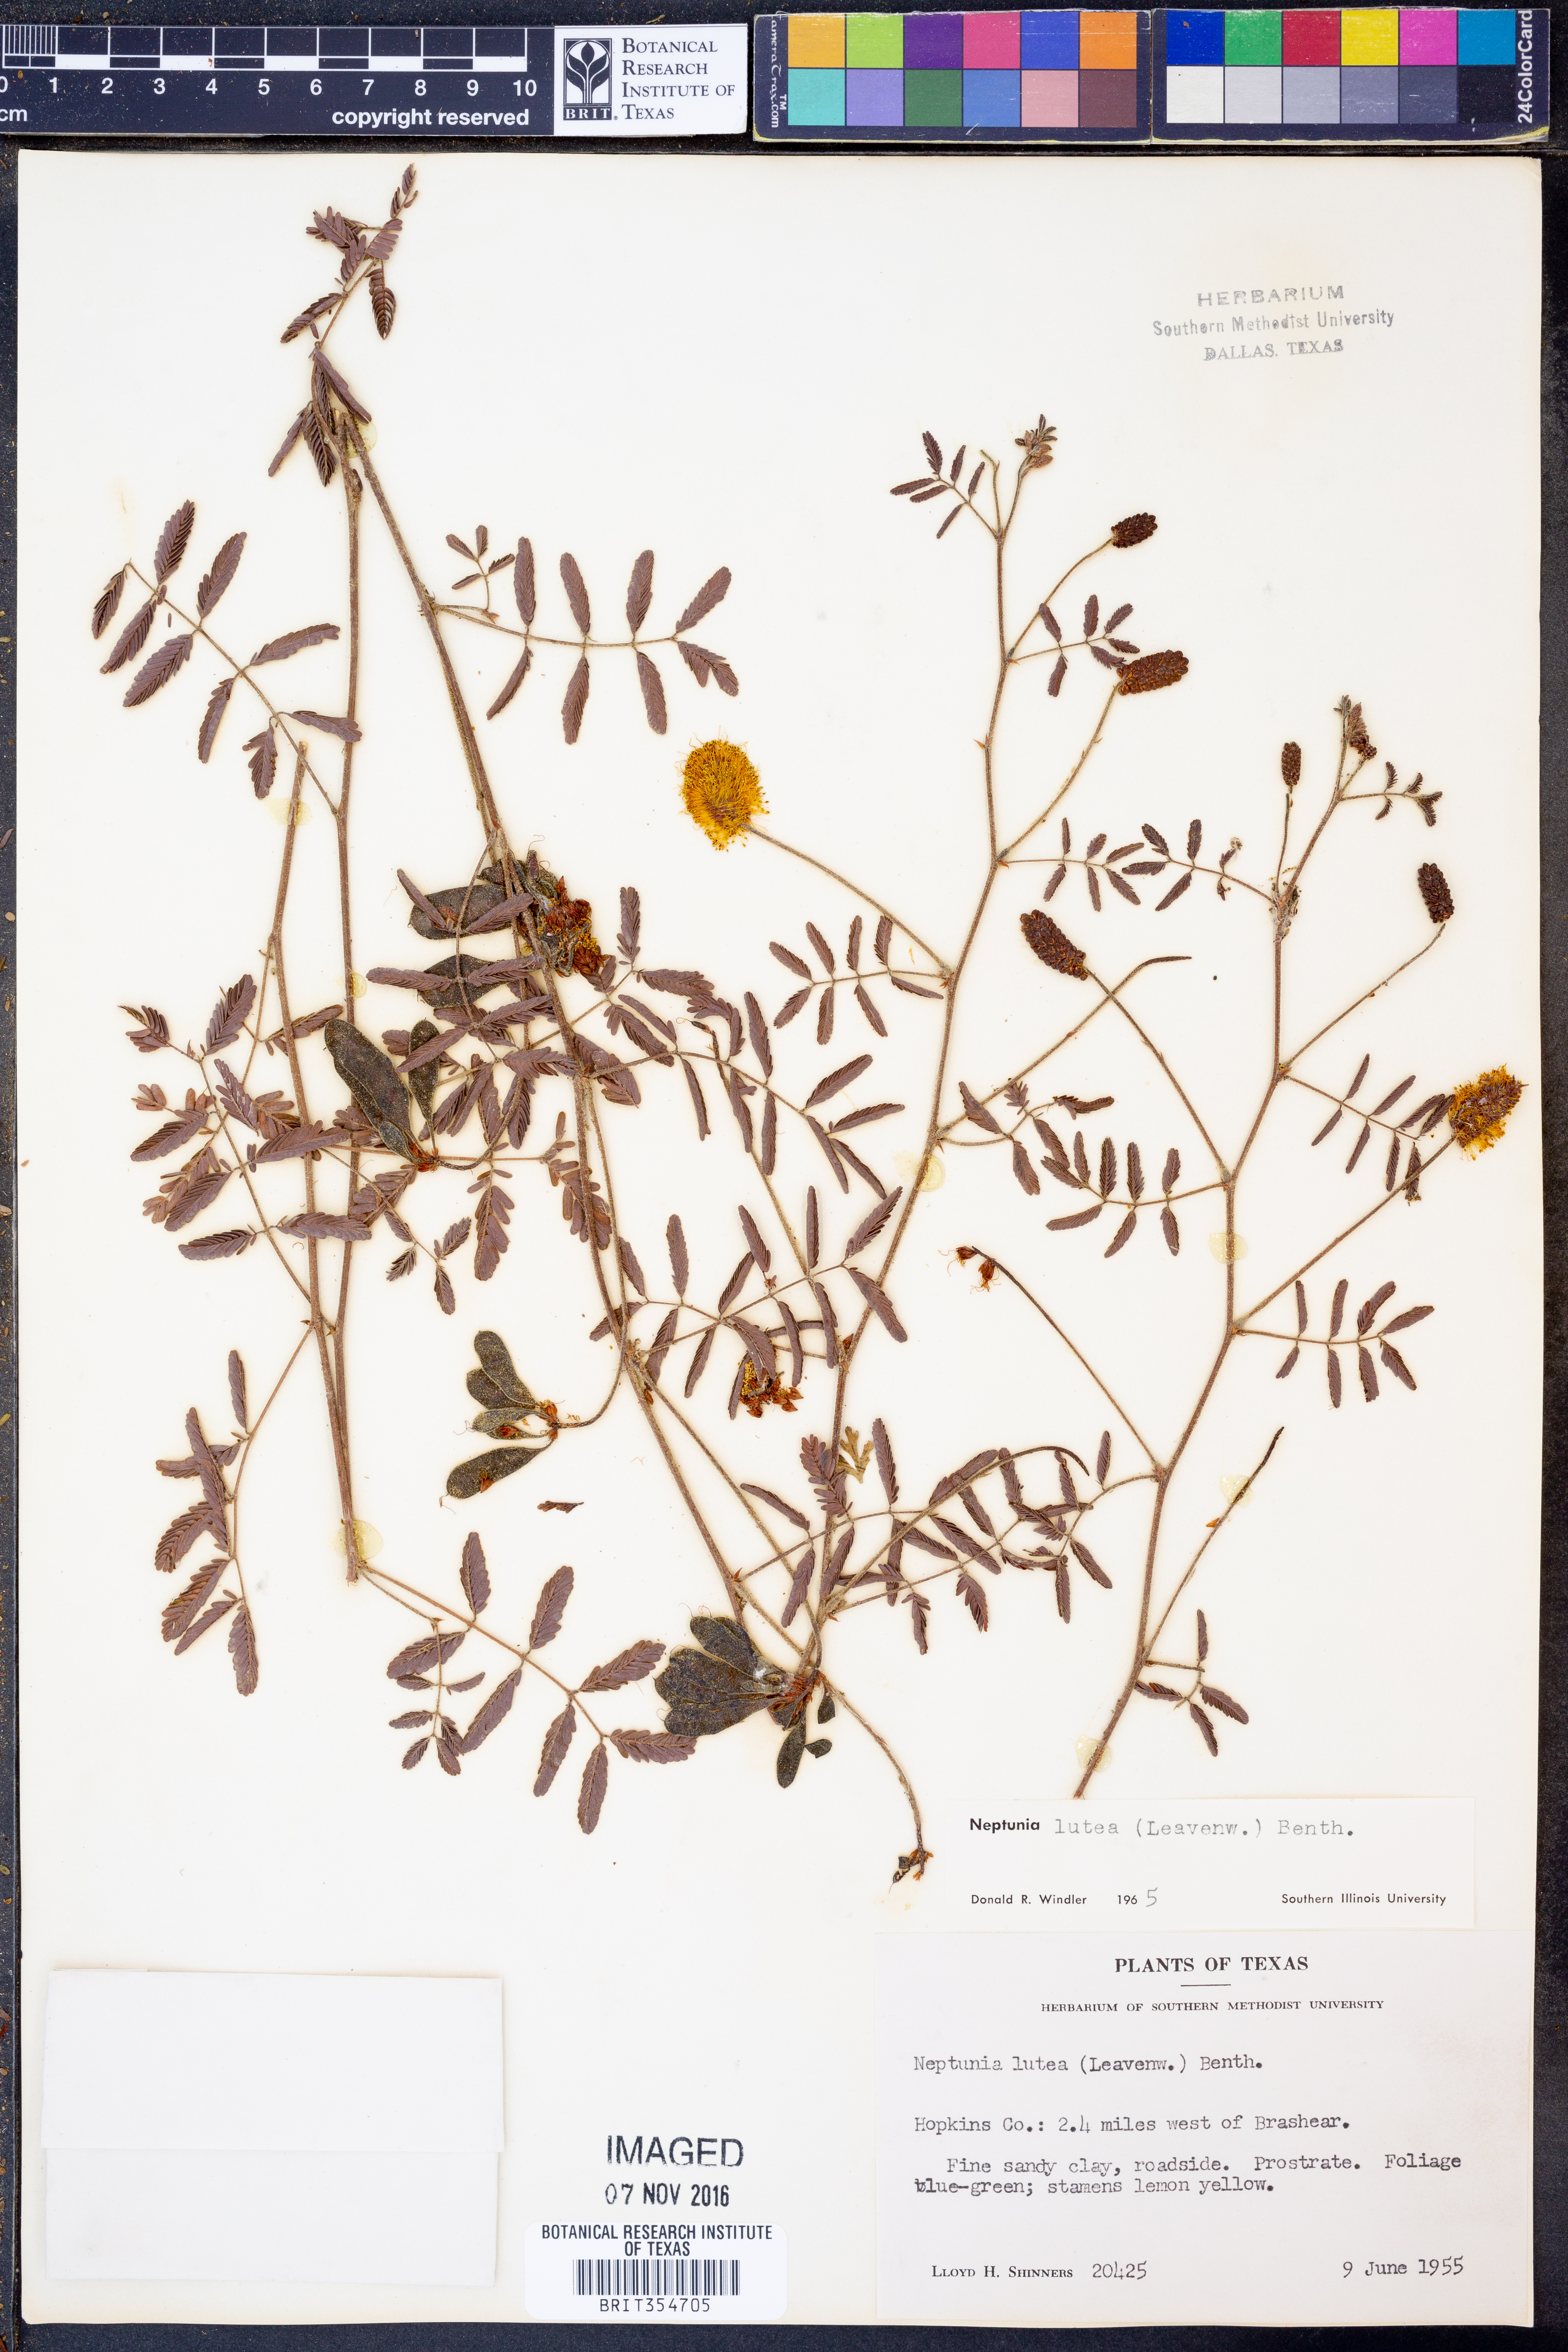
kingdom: Plantae
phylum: Tracheophyta
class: Magnoliopsida
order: Fabales
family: Fabaceae
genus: Neptunia
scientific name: Neptunia lutea
